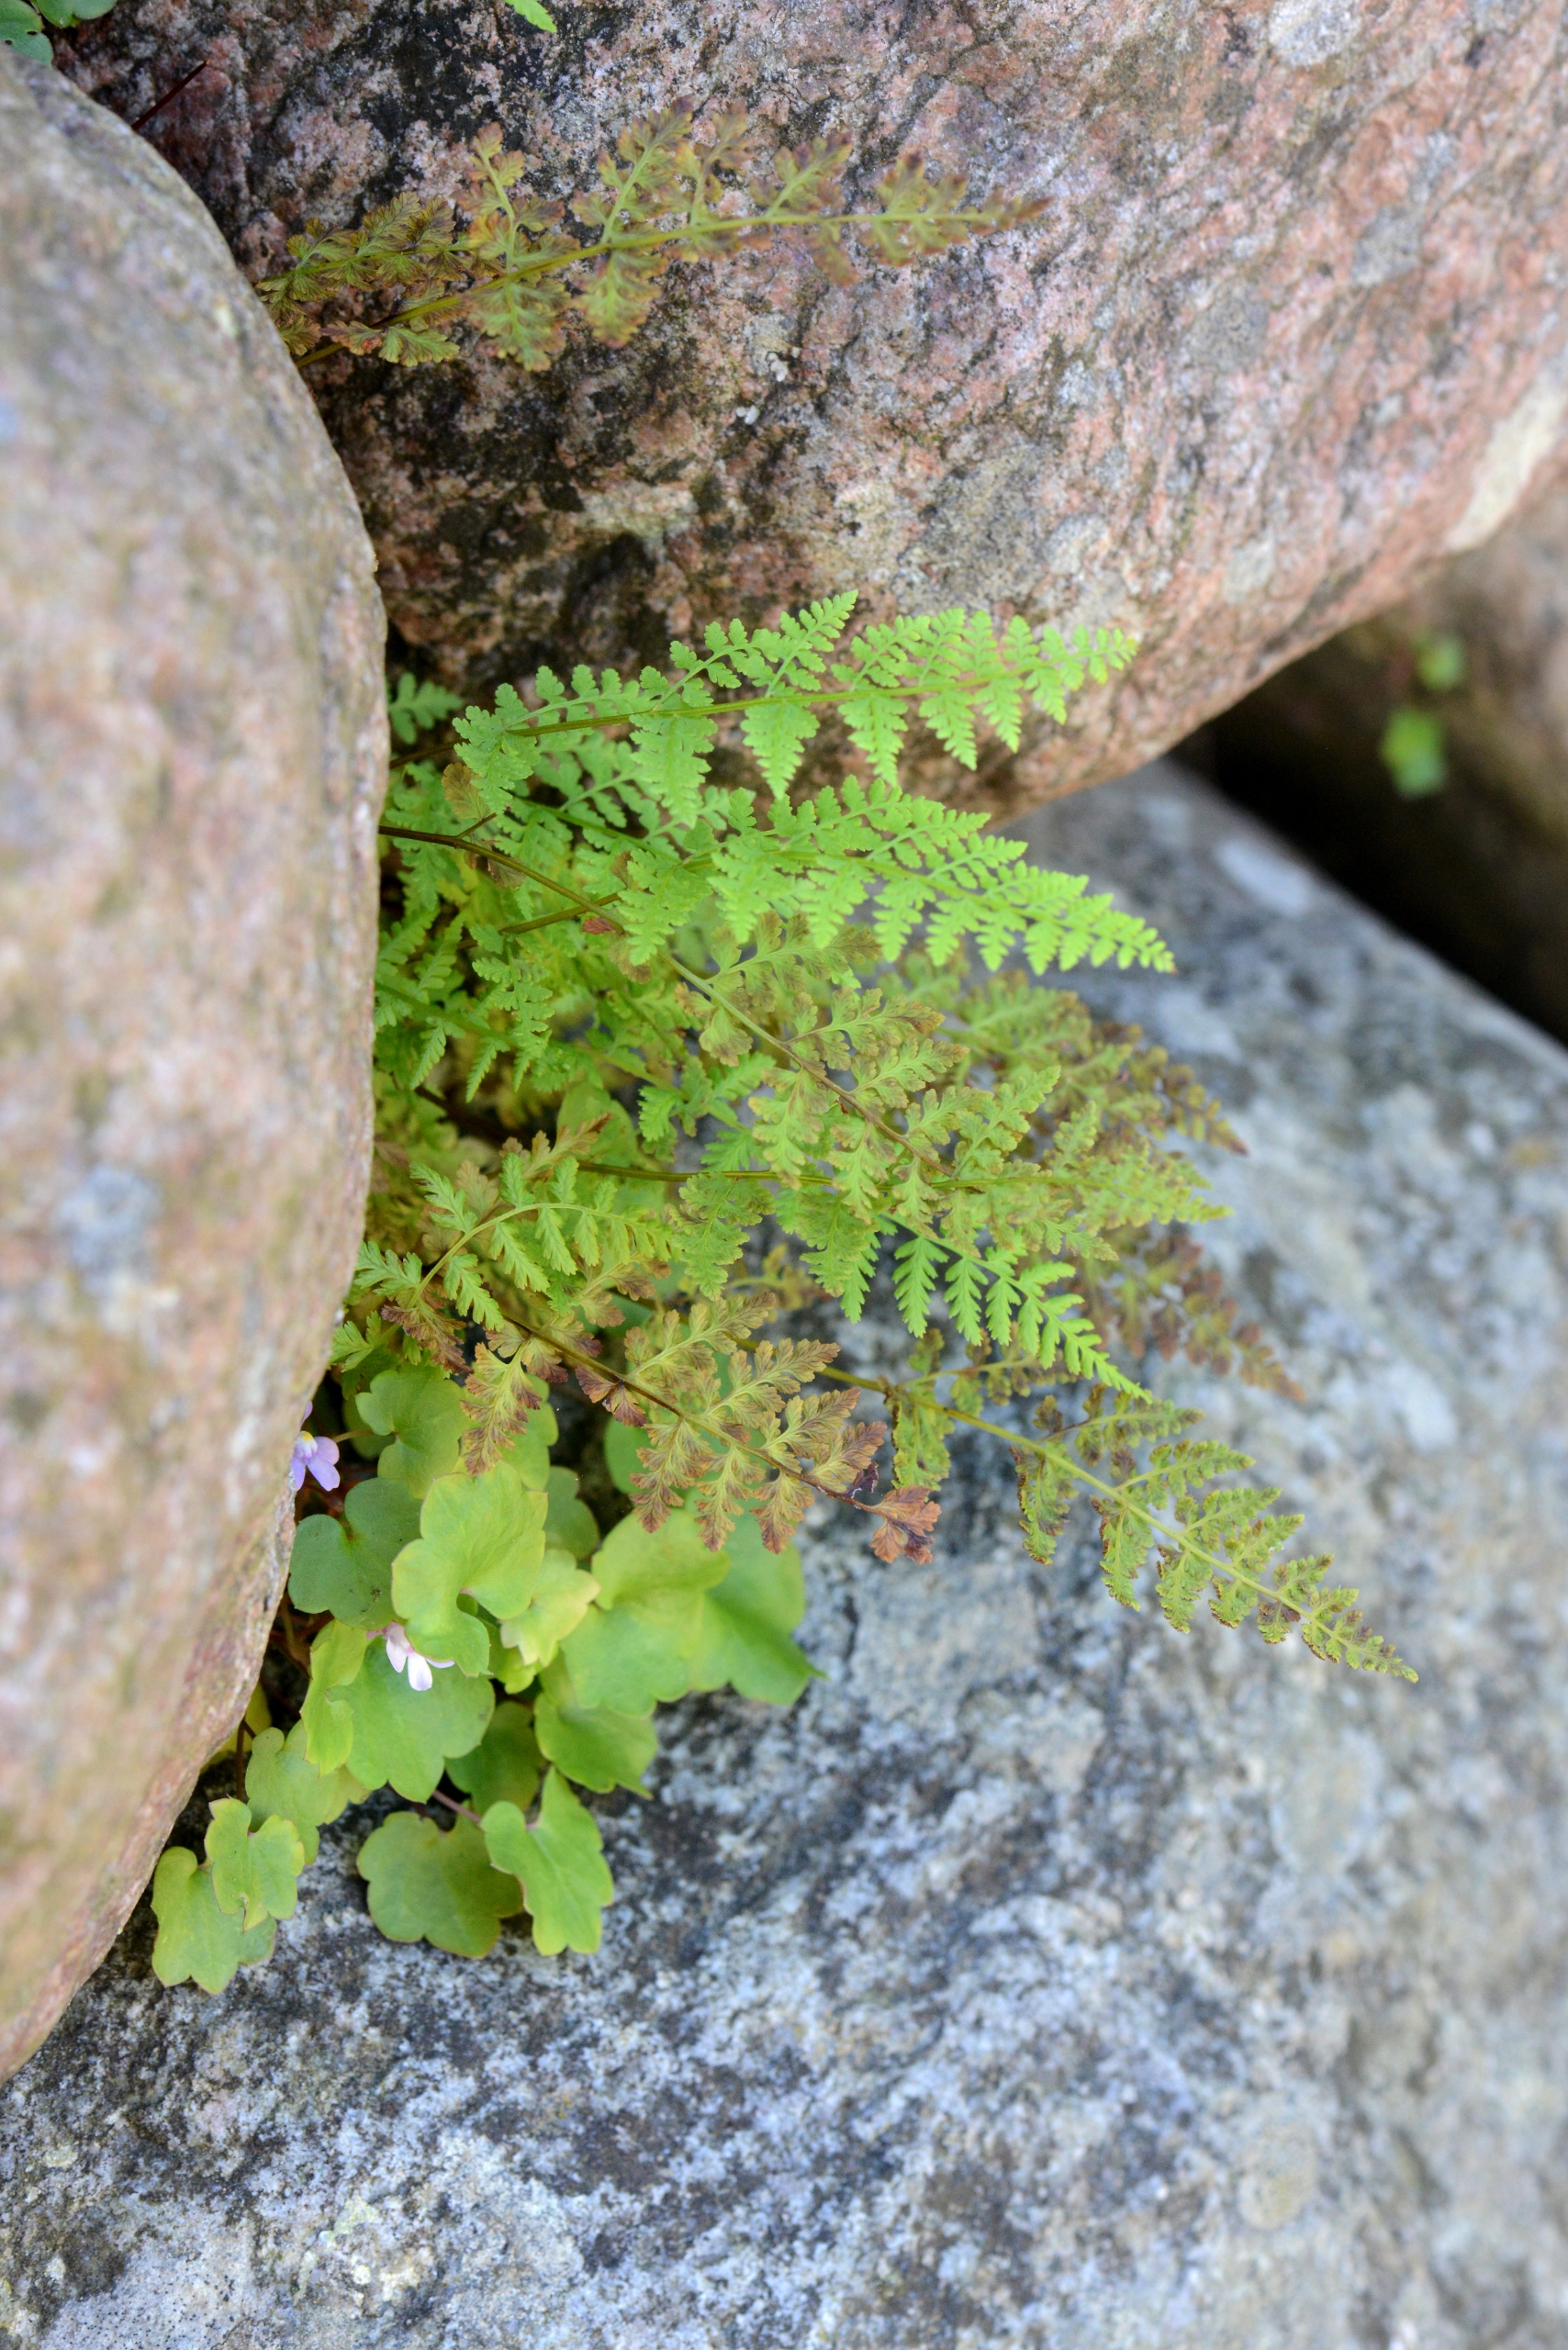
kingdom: Plantae
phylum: Tracheophyta
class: Polypodiopsida
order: Polypodiales
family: Cystopteridaceae
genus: Cystopteris
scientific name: Cystopteris fragilis
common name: Bægerbregne
